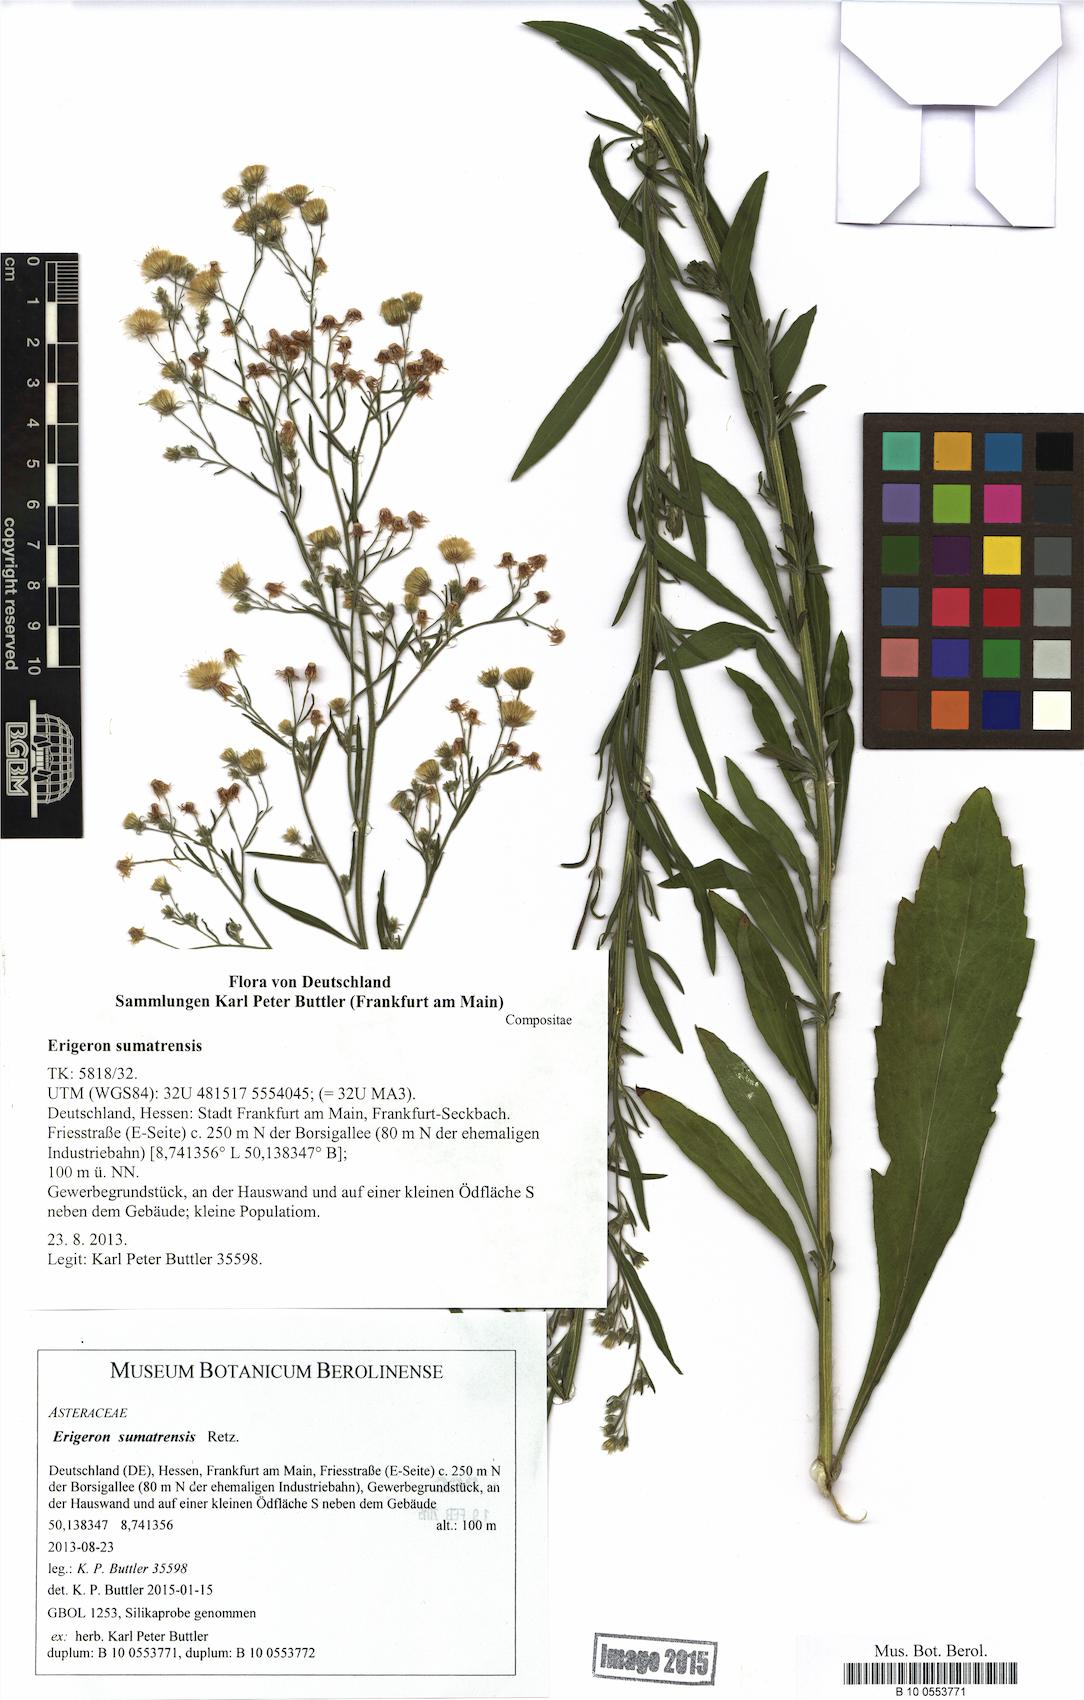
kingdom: Plantae
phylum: Tracheophyta
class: Magnoliopsida
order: Asterales
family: Asteraceae
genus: Erigeron
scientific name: Erigeron sumatrensis
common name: Daisy
